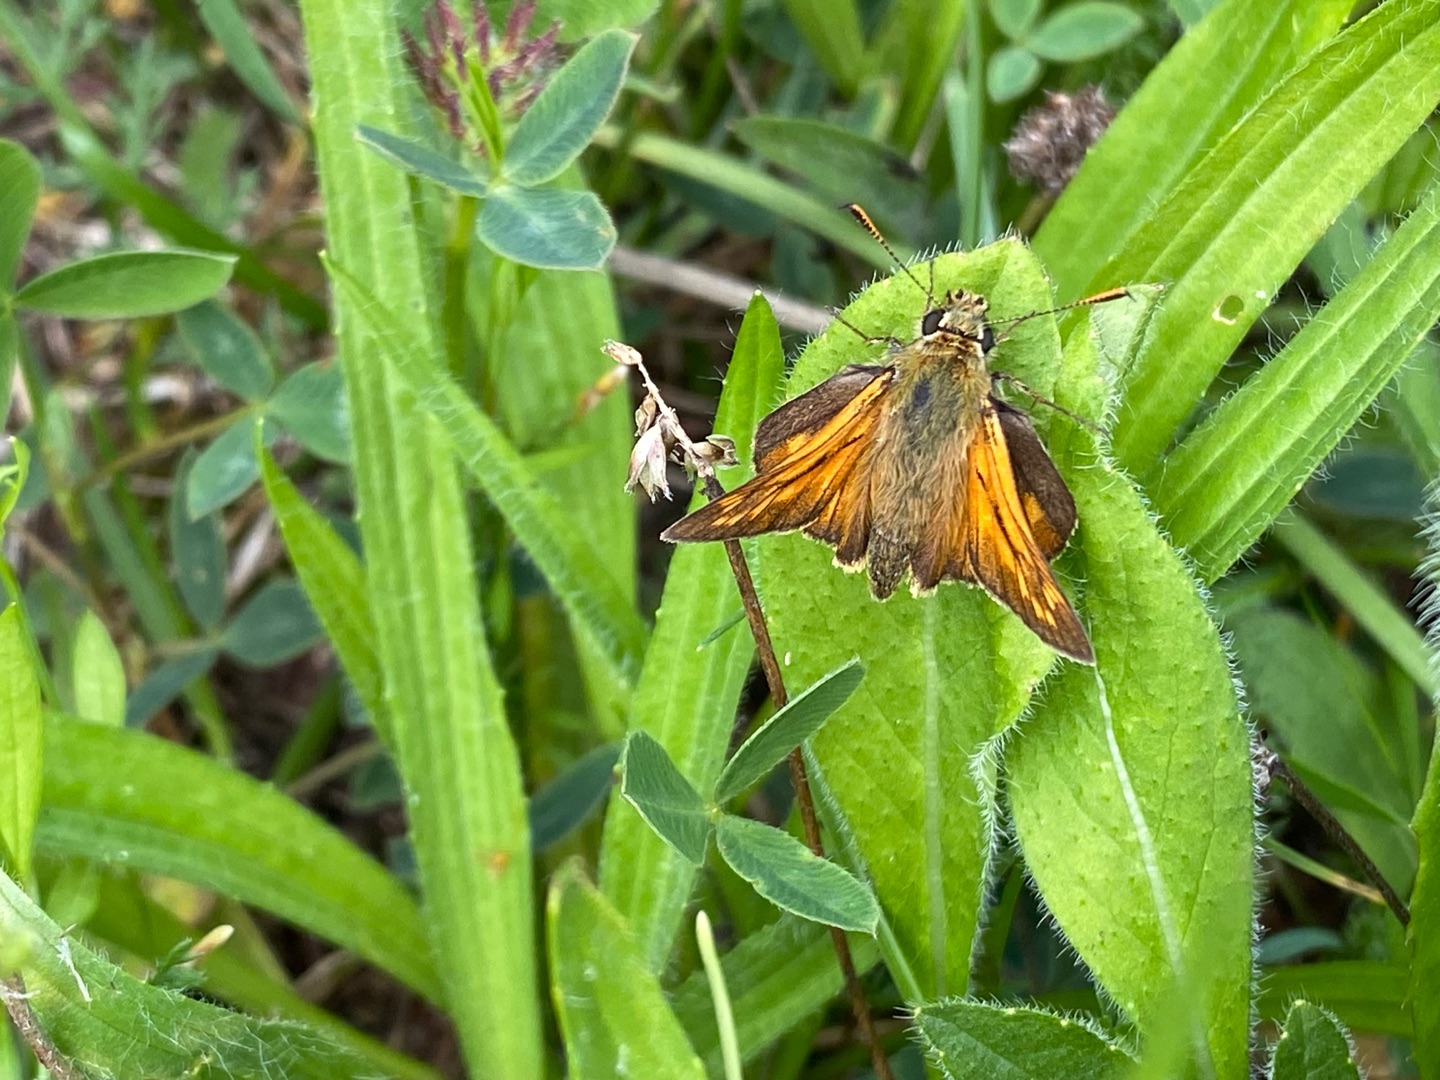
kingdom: Animalia
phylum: Arthropoda
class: Insecta
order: Lepidoptera
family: Hesperiidae
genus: Ochlodes
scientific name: Ochlodes venata
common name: Stor bredpande
